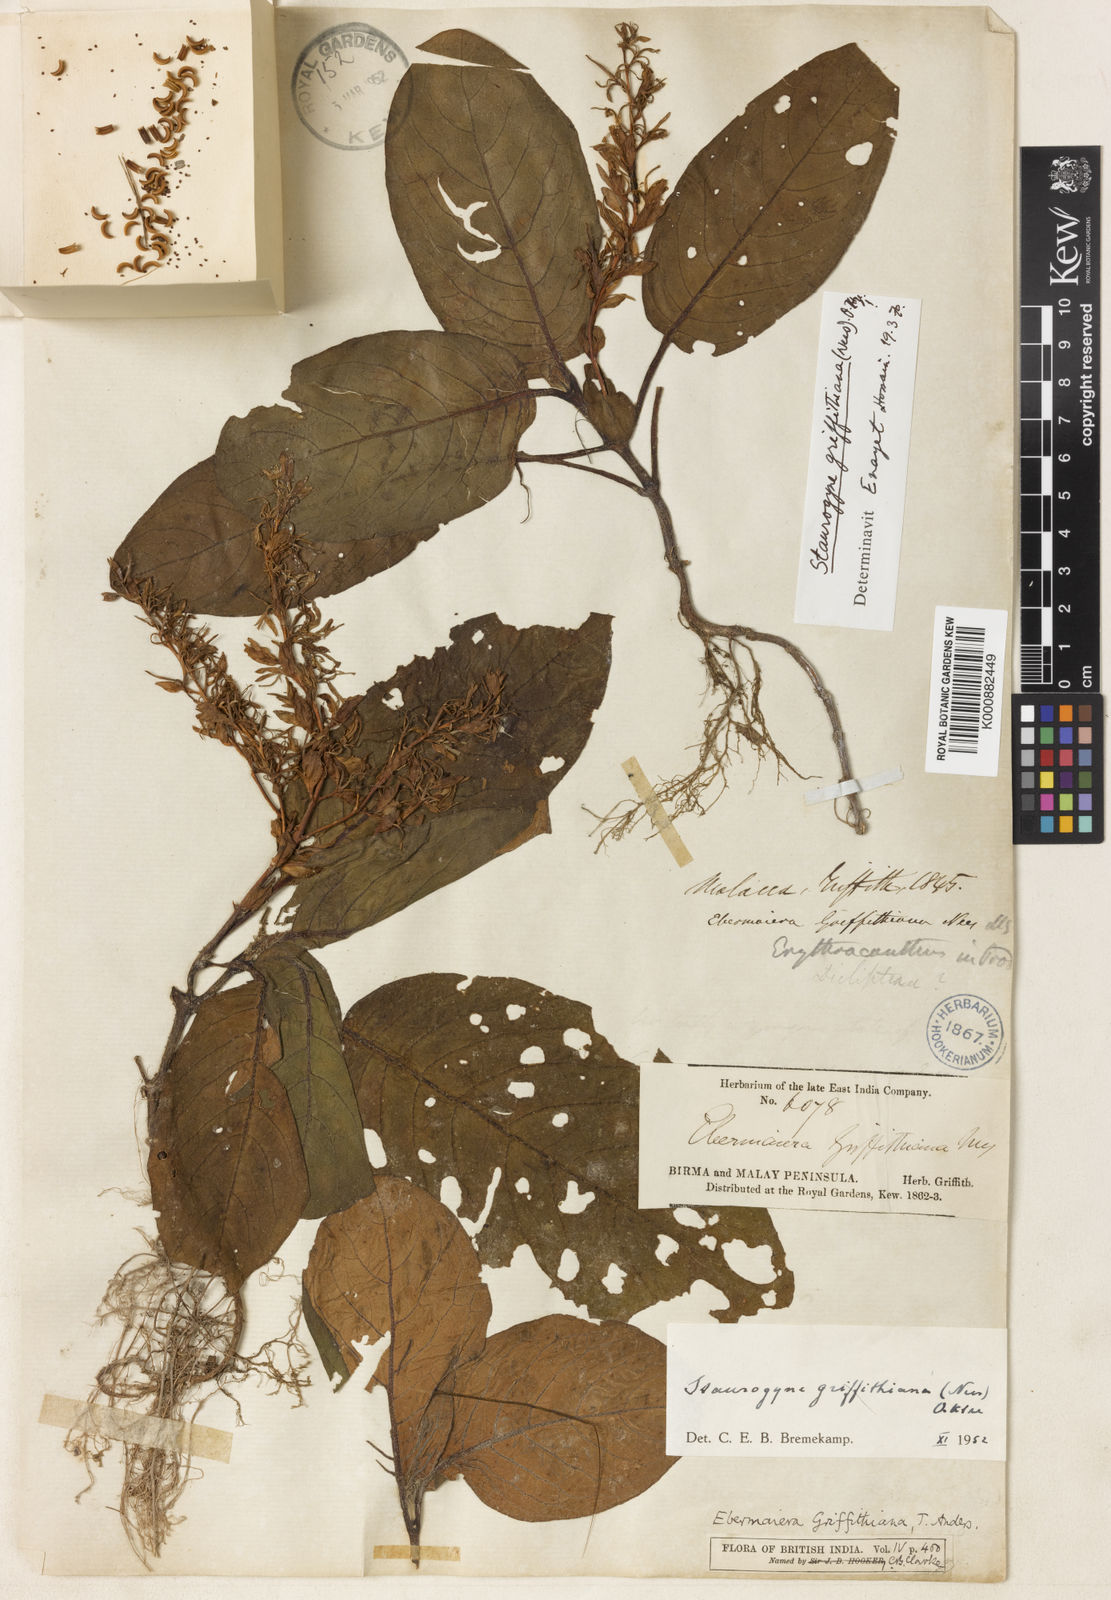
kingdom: Plantae
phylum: Tracheophyta
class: Magnoliopsida
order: Lamiales
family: Acanthaceae
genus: Staurogyne
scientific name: Staurogyne griffithiana
